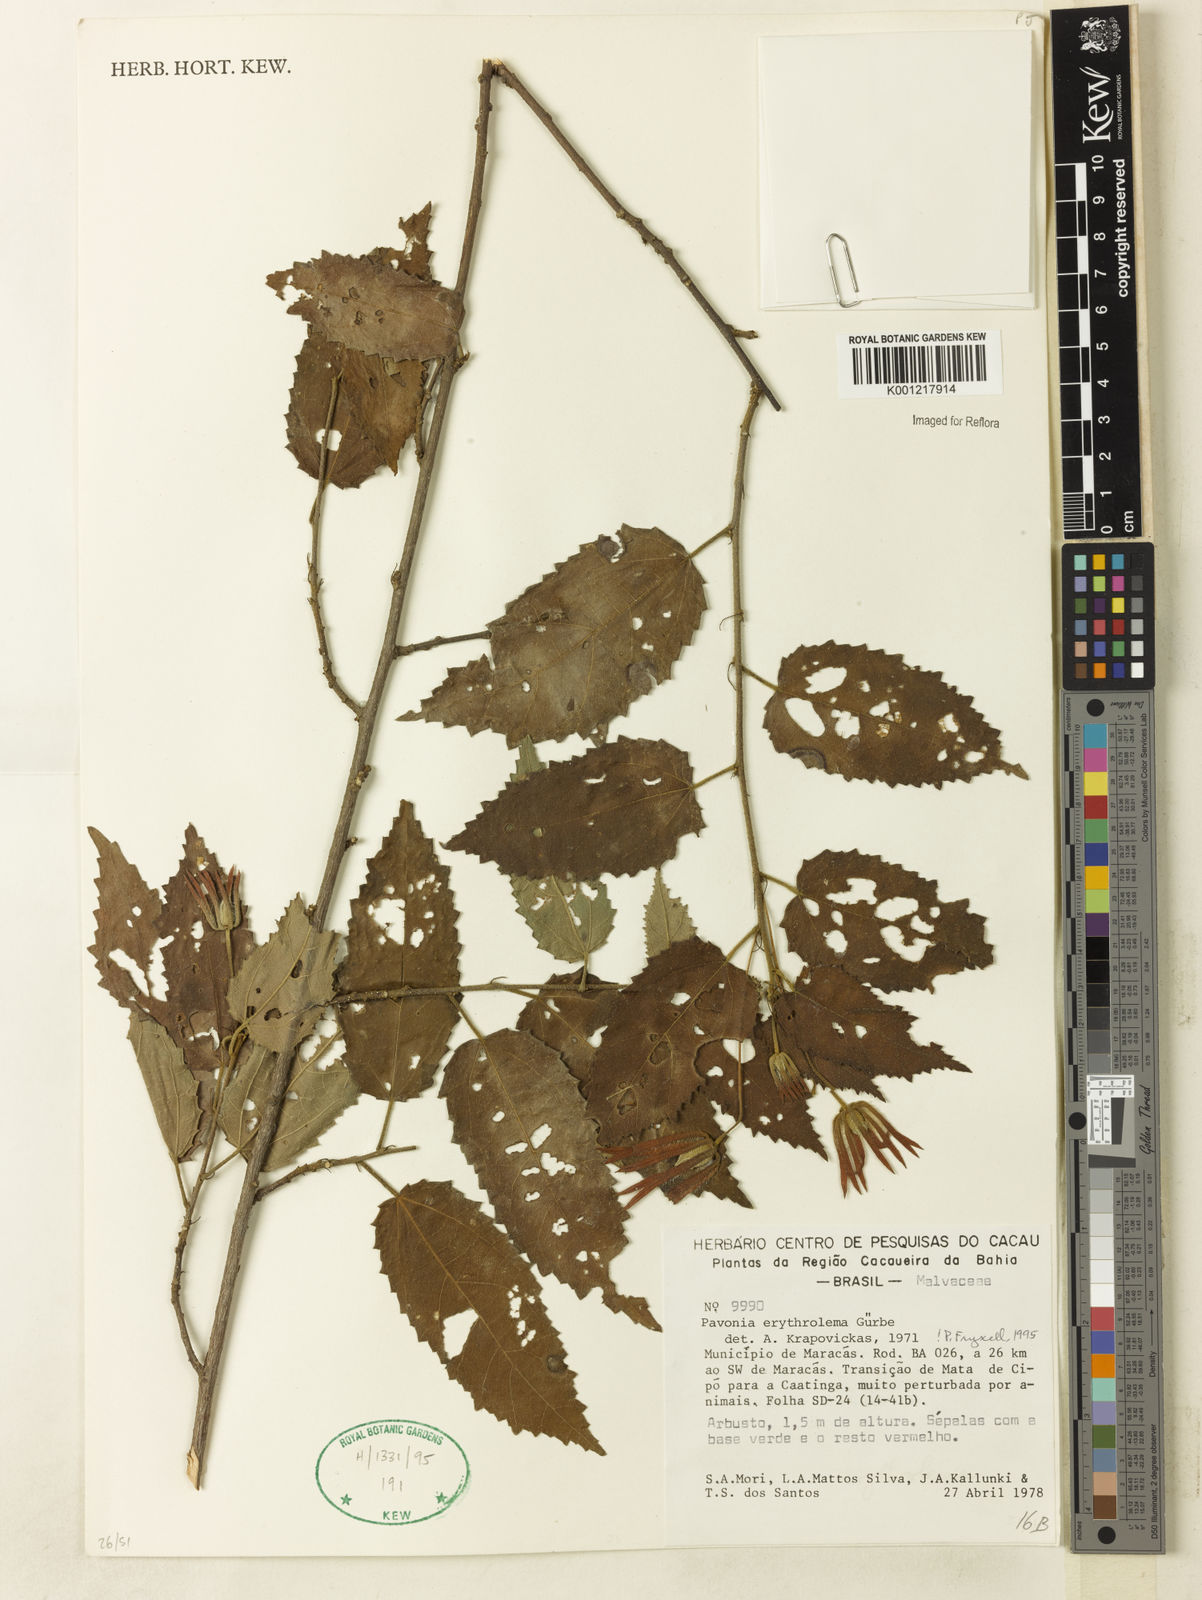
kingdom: Plantae
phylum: Tracheophyta
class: Magnoliopsida
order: Malvales
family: Malvaceae
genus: Pavonia
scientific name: Pavonia
